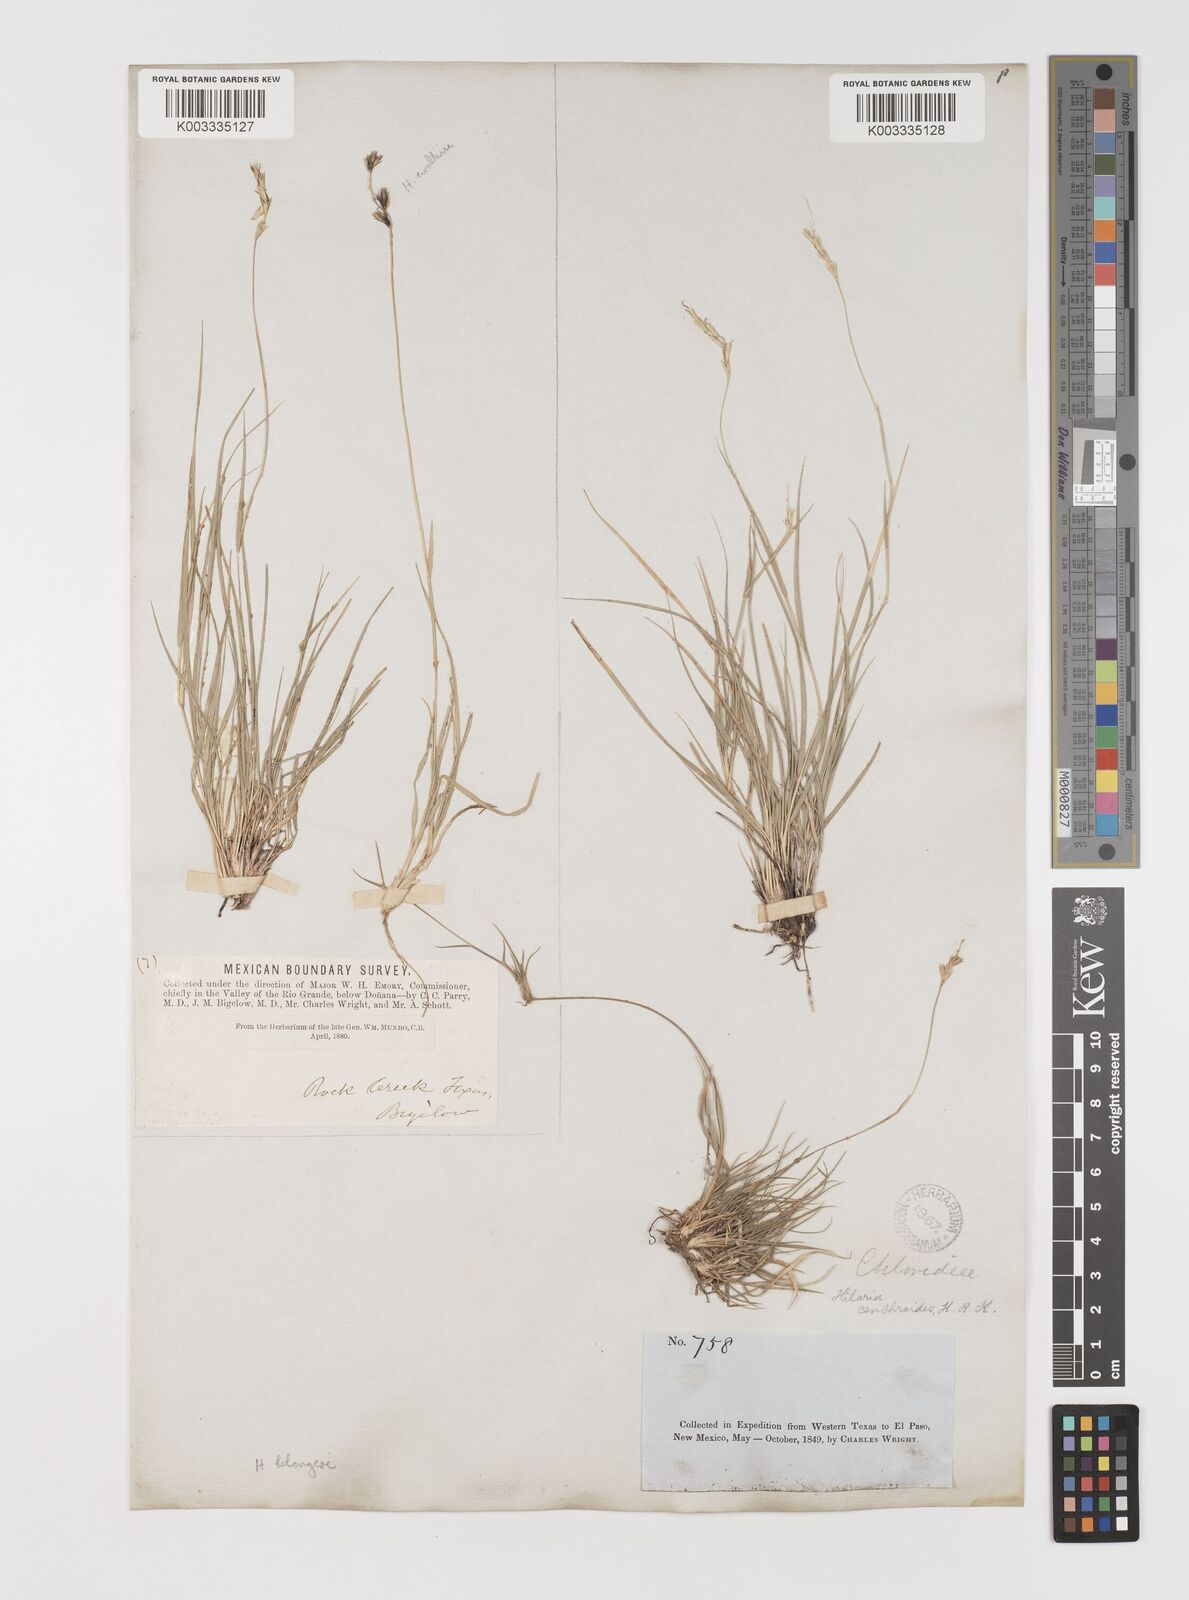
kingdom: Plantae
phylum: Tracheophyta
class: Liliopsida
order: Poales
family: Poaceae
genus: Hilaria
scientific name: Hilaria belangeri
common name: Curly-mesquite
